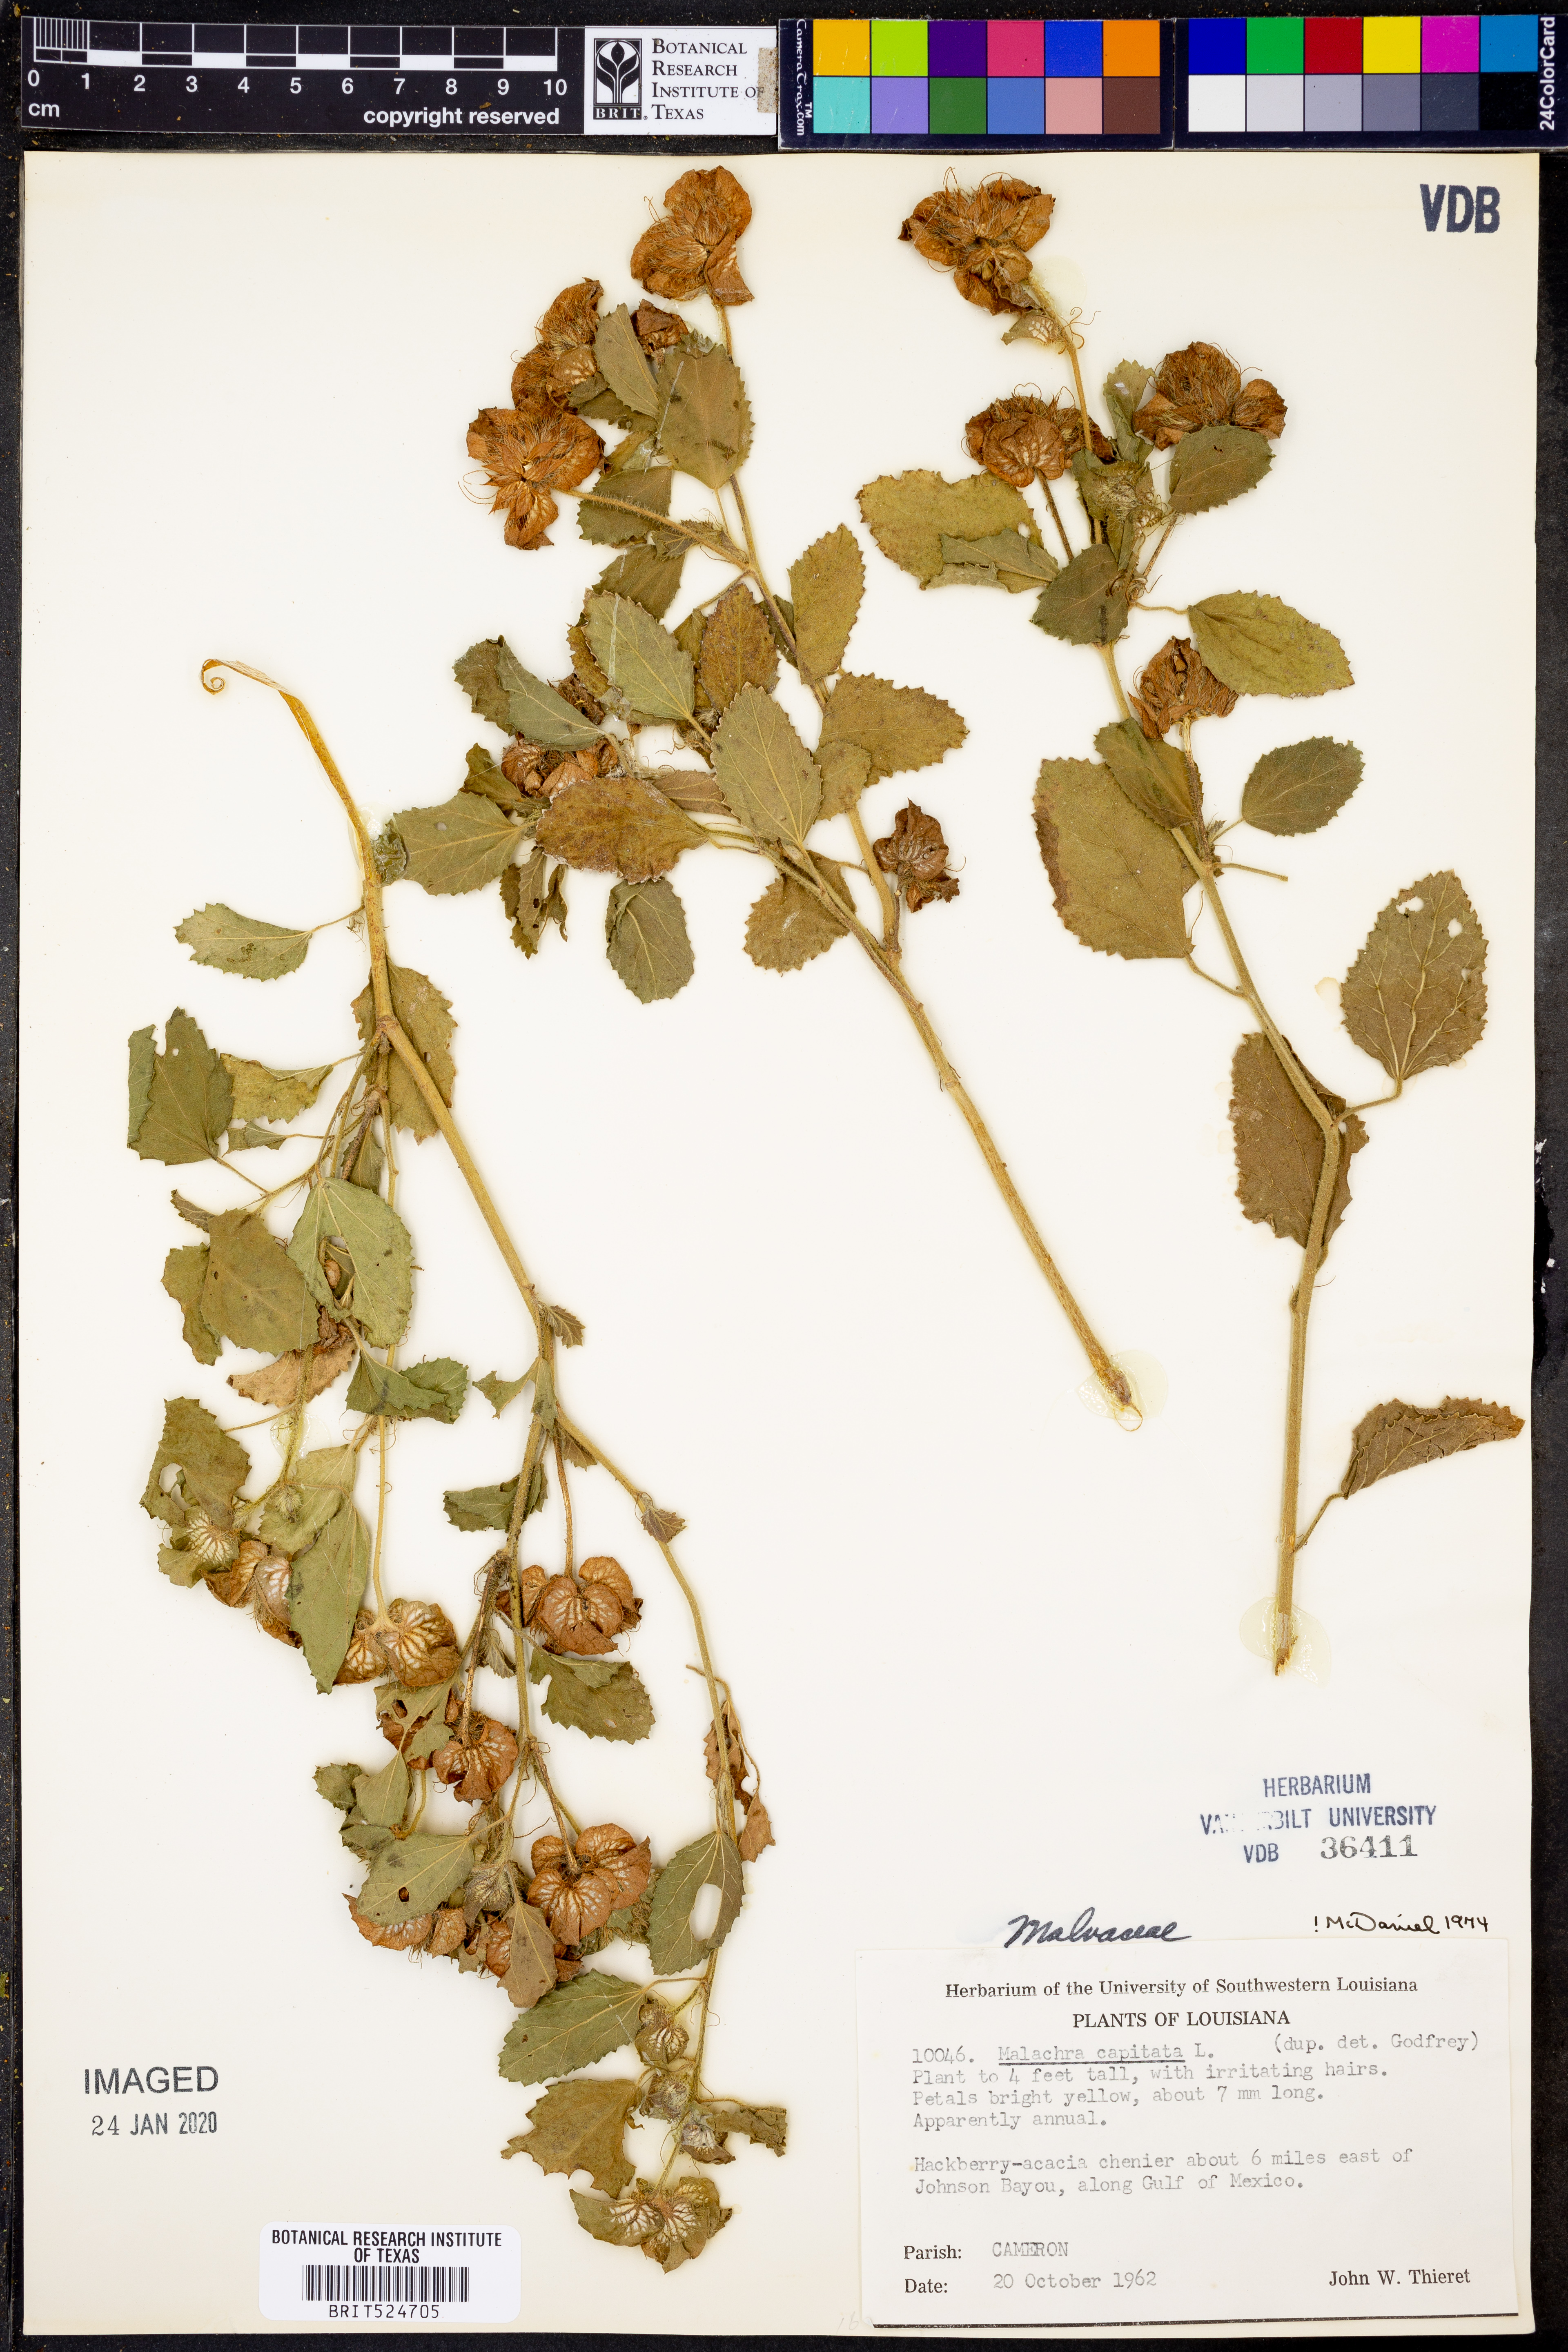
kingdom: Plantae
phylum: Tracheophyta
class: Magnoliopsida
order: Malvales
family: Malvaceae
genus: Malachra
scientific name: Malachra capitata
